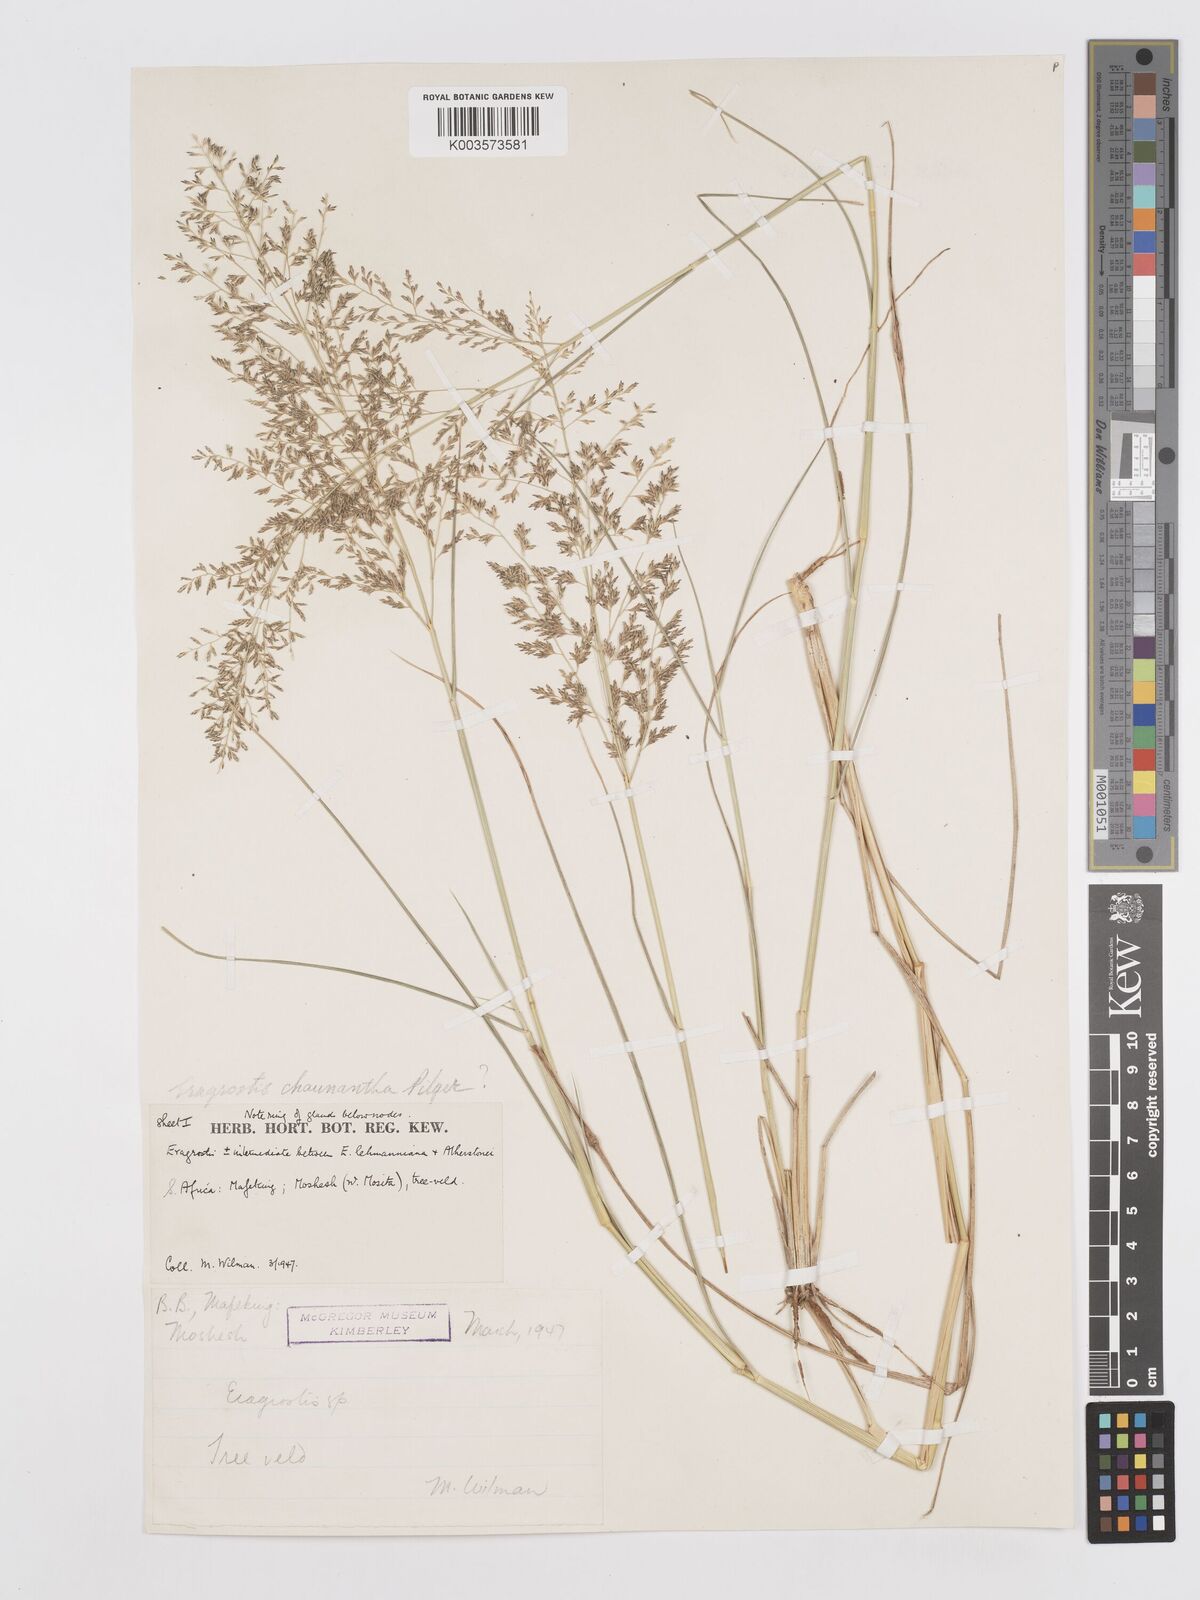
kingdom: Plantae
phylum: Tracheophyta
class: Liliopsida
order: Poales
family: Poaceae
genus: Eragrostis
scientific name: Eragrostis lehmanniana
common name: Lehmann lovegrass
